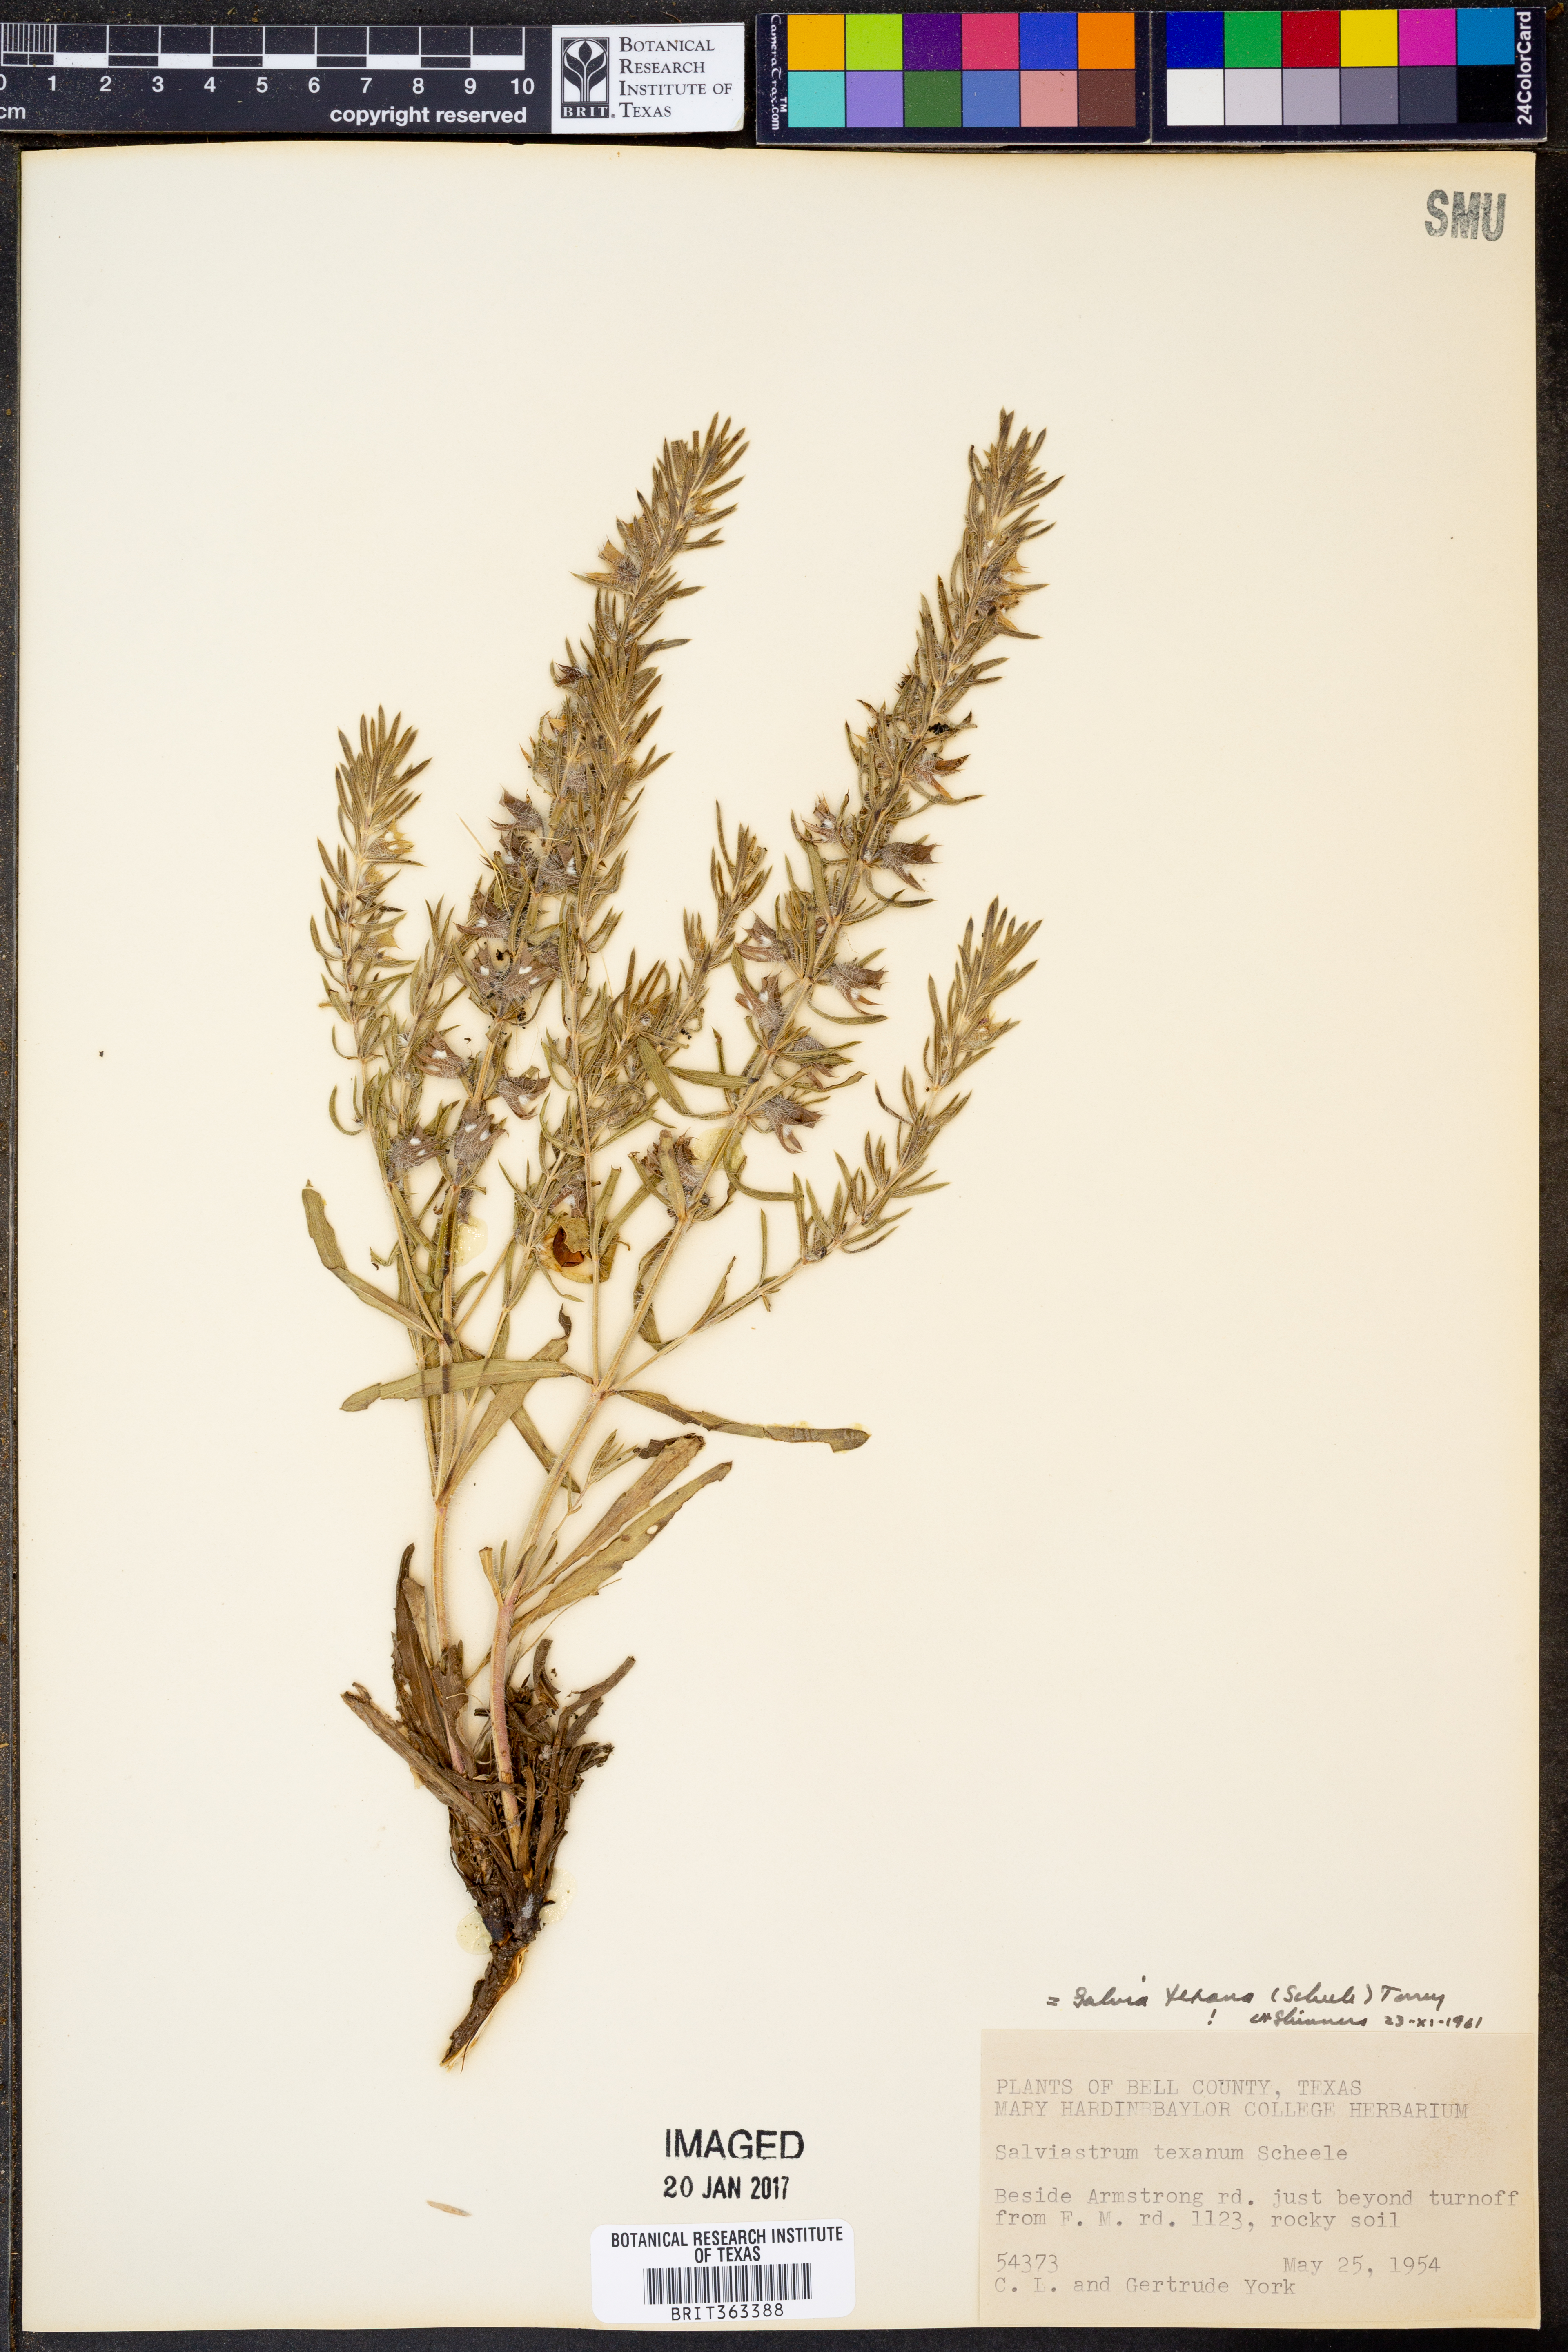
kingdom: Plantae
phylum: Tracheophyta
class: Magnoliopsida
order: Lamiales
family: Lamiaceae
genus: Salvia
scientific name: Salvia texana
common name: Texas sage
